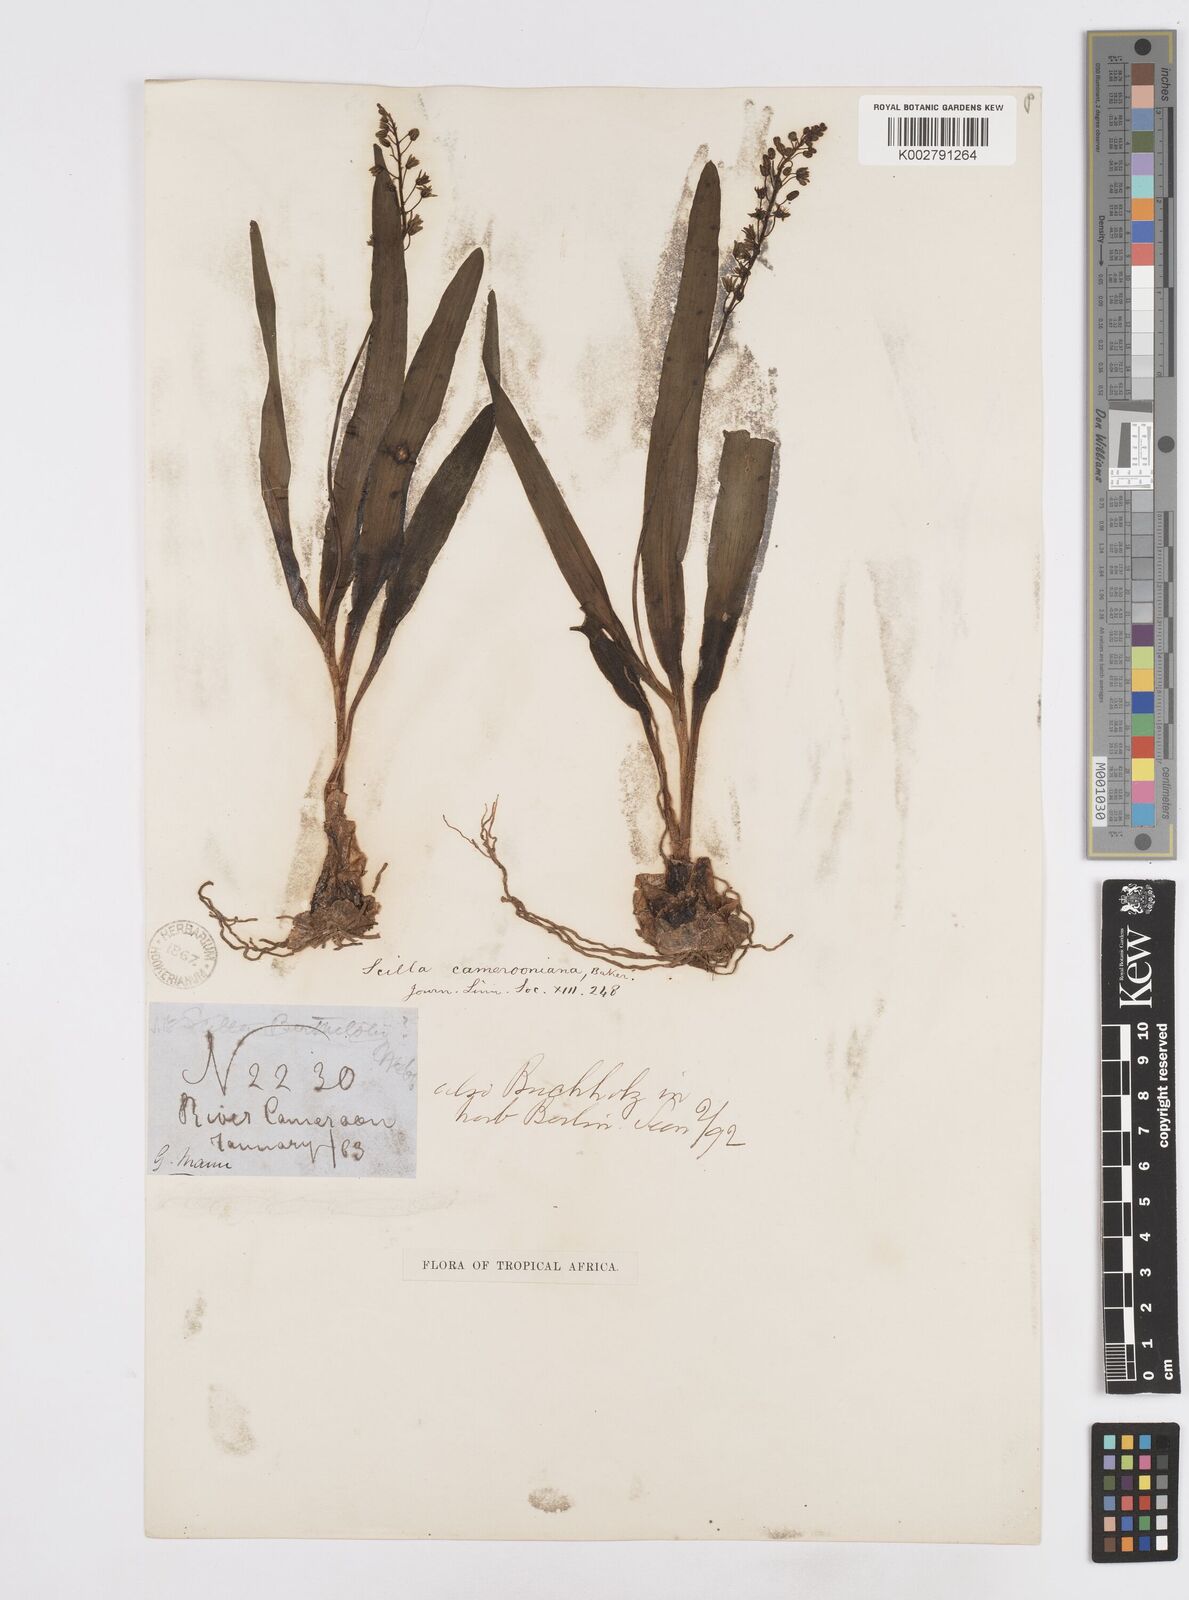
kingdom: Plantae
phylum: Tracheophyta
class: Liliopsida
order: Asparagales
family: Asparagaceae
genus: Ledebouria
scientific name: Ledebouria camerooniana
